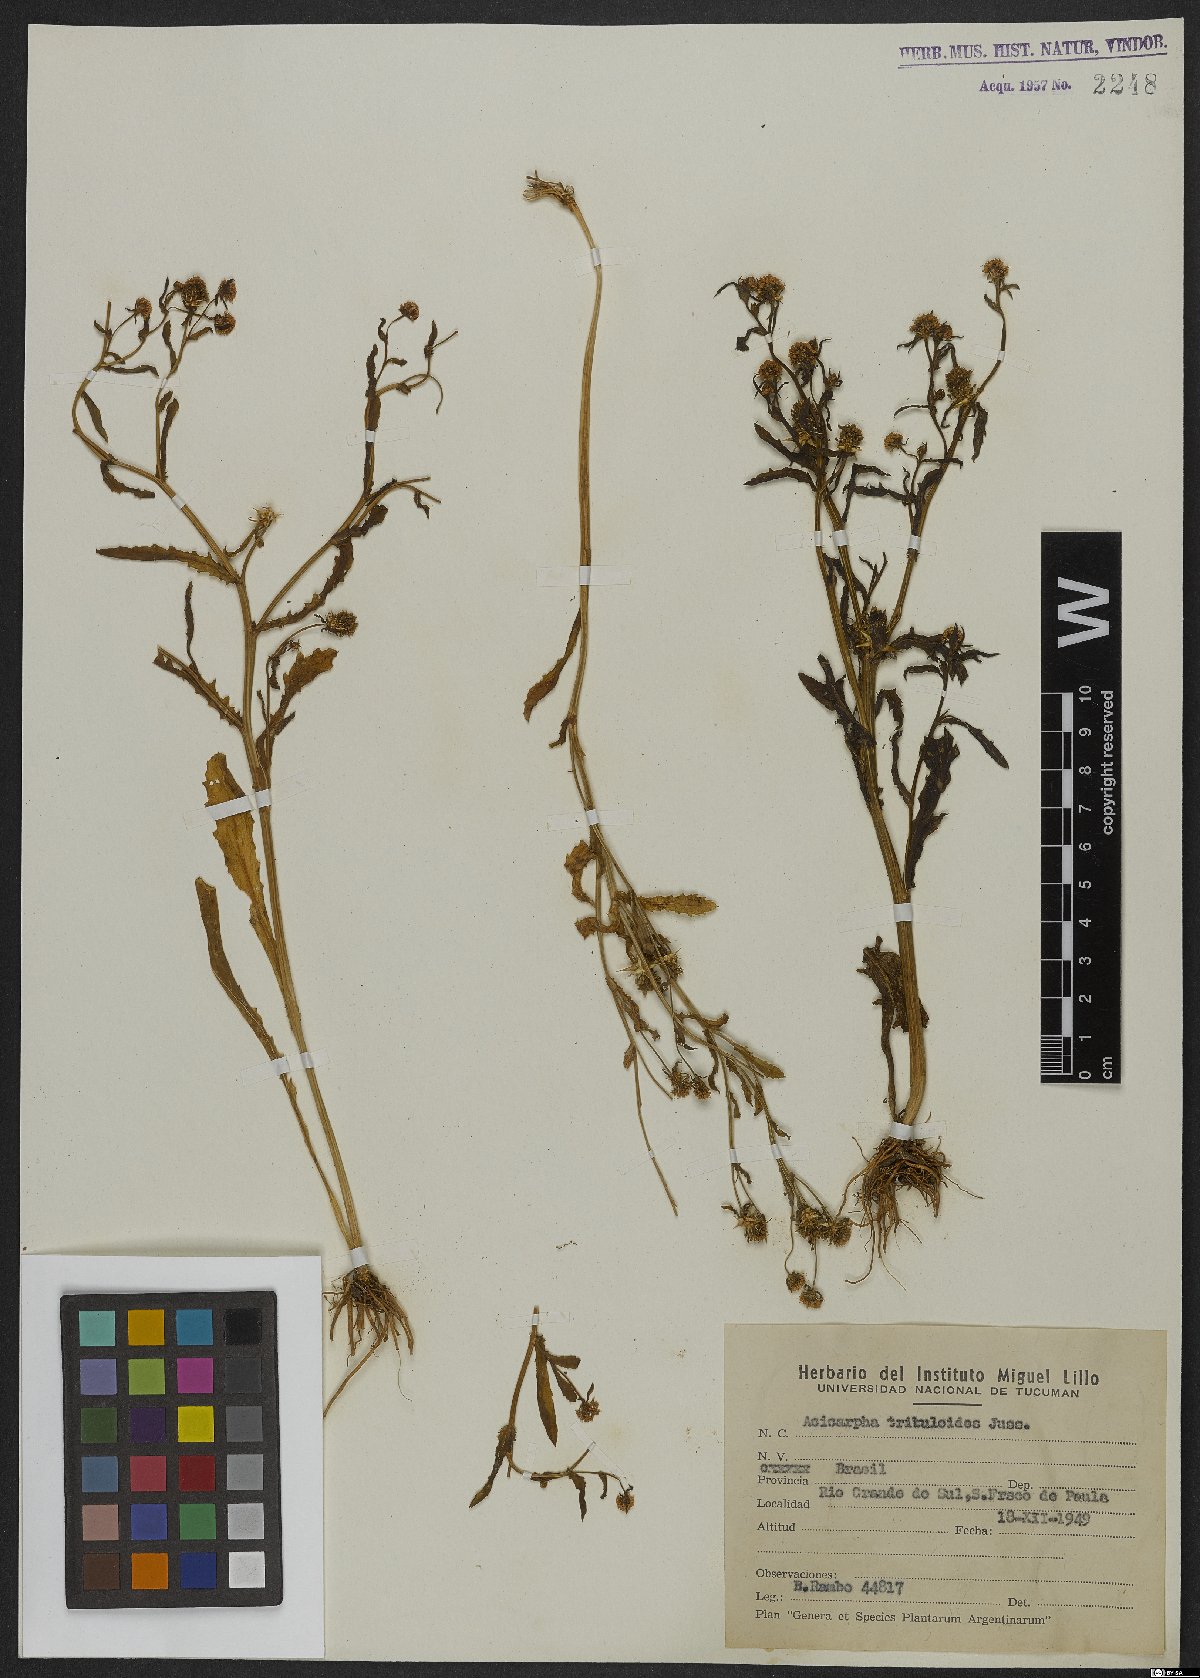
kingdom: Plantae
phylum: Tracheophyta
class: Magnoliopsida
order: Asterales
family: Calyceraceae
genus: Acicarpha
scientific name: Acicarpha tribuloides
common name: Madam gorgon
